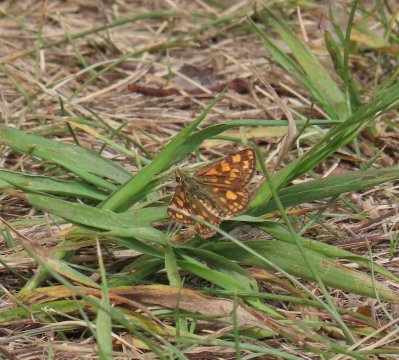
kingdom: Animalia
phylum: Arthropoda
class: Insecta
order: Lepidoptera
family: Hesperiidae
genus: Carterocephalus
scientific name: Carterocephalus palaemon
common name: Chequered Skipper
